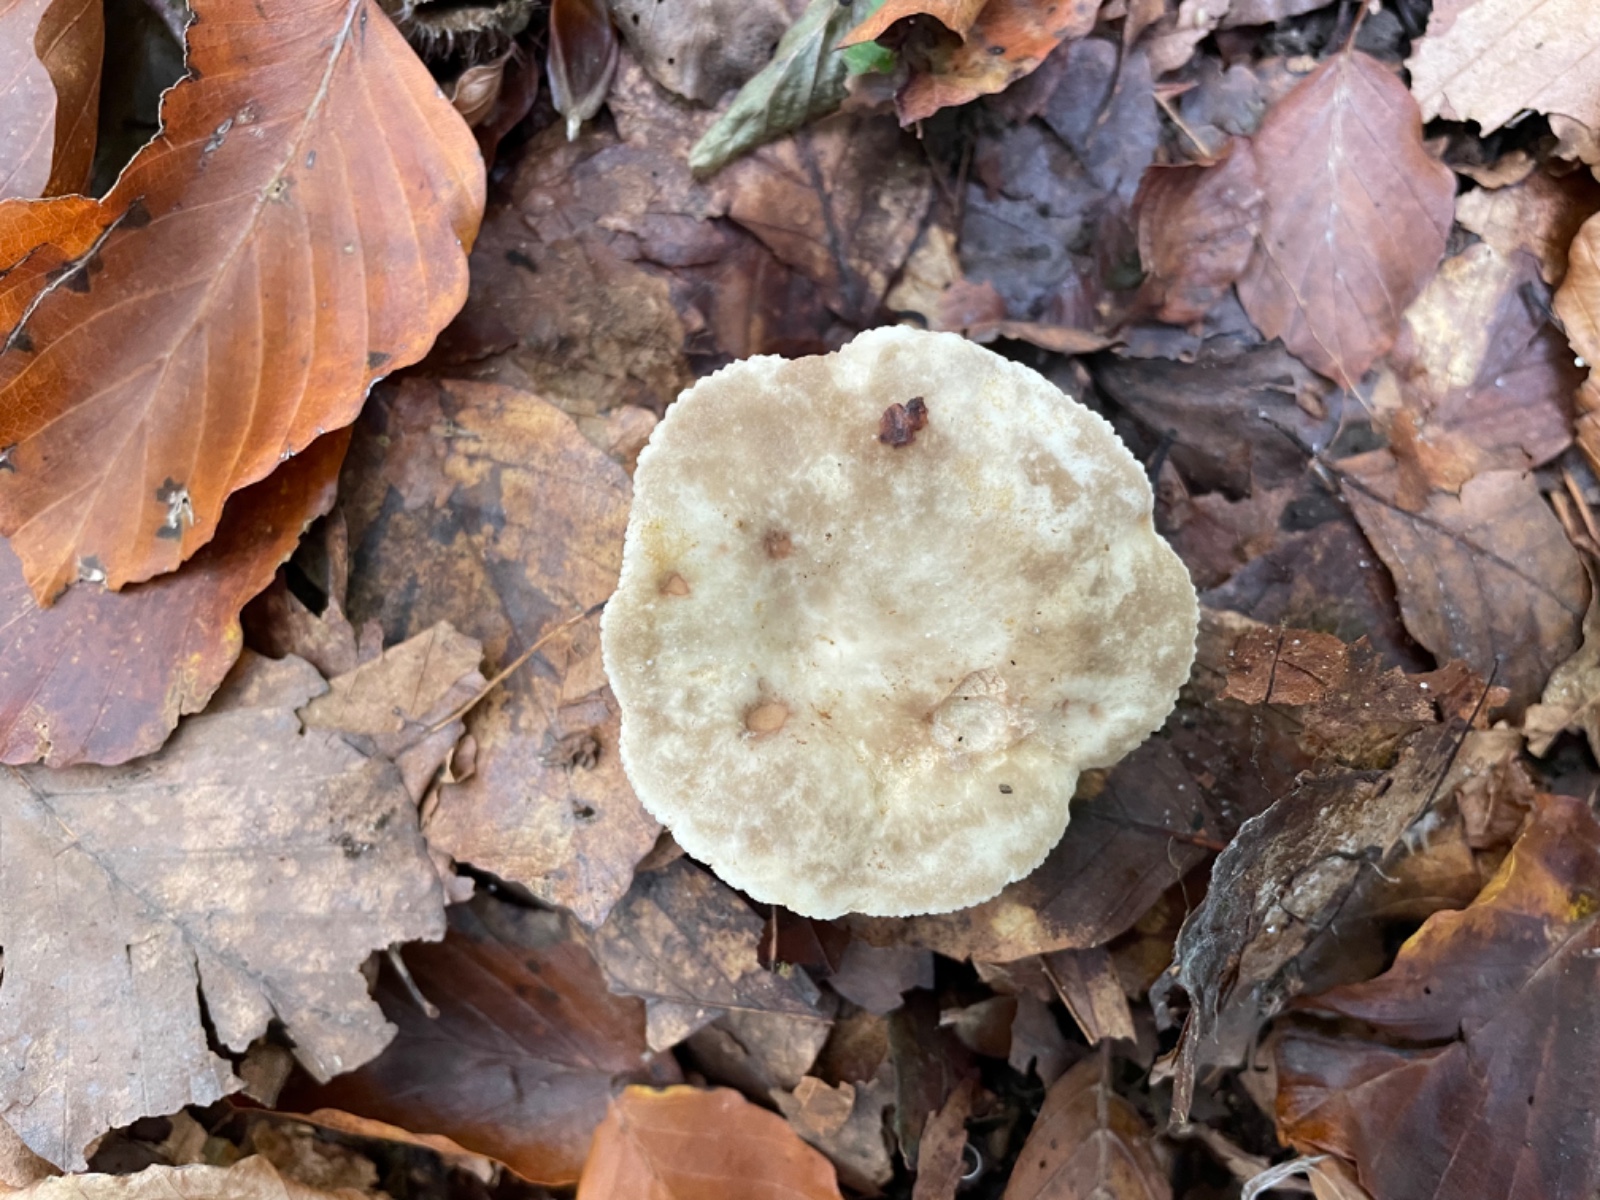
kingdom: Fungi
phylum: Basidiomycota
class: Agaricomycetes
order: Russulales
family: Russulaceae
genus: Lactarius
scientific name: Lactarius
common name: mælkehat
